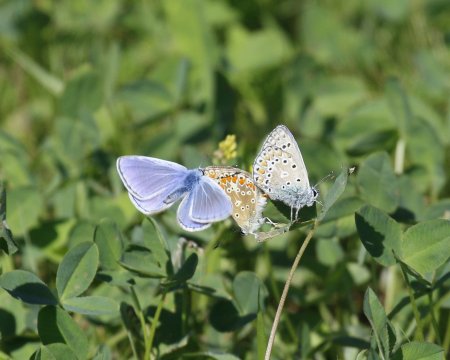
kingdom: Animalia
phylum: Arthropoda
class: Insecta
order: Lepidoptera
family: Lycaenidae
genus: Polyommatus
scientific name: Polyommatus icarus
